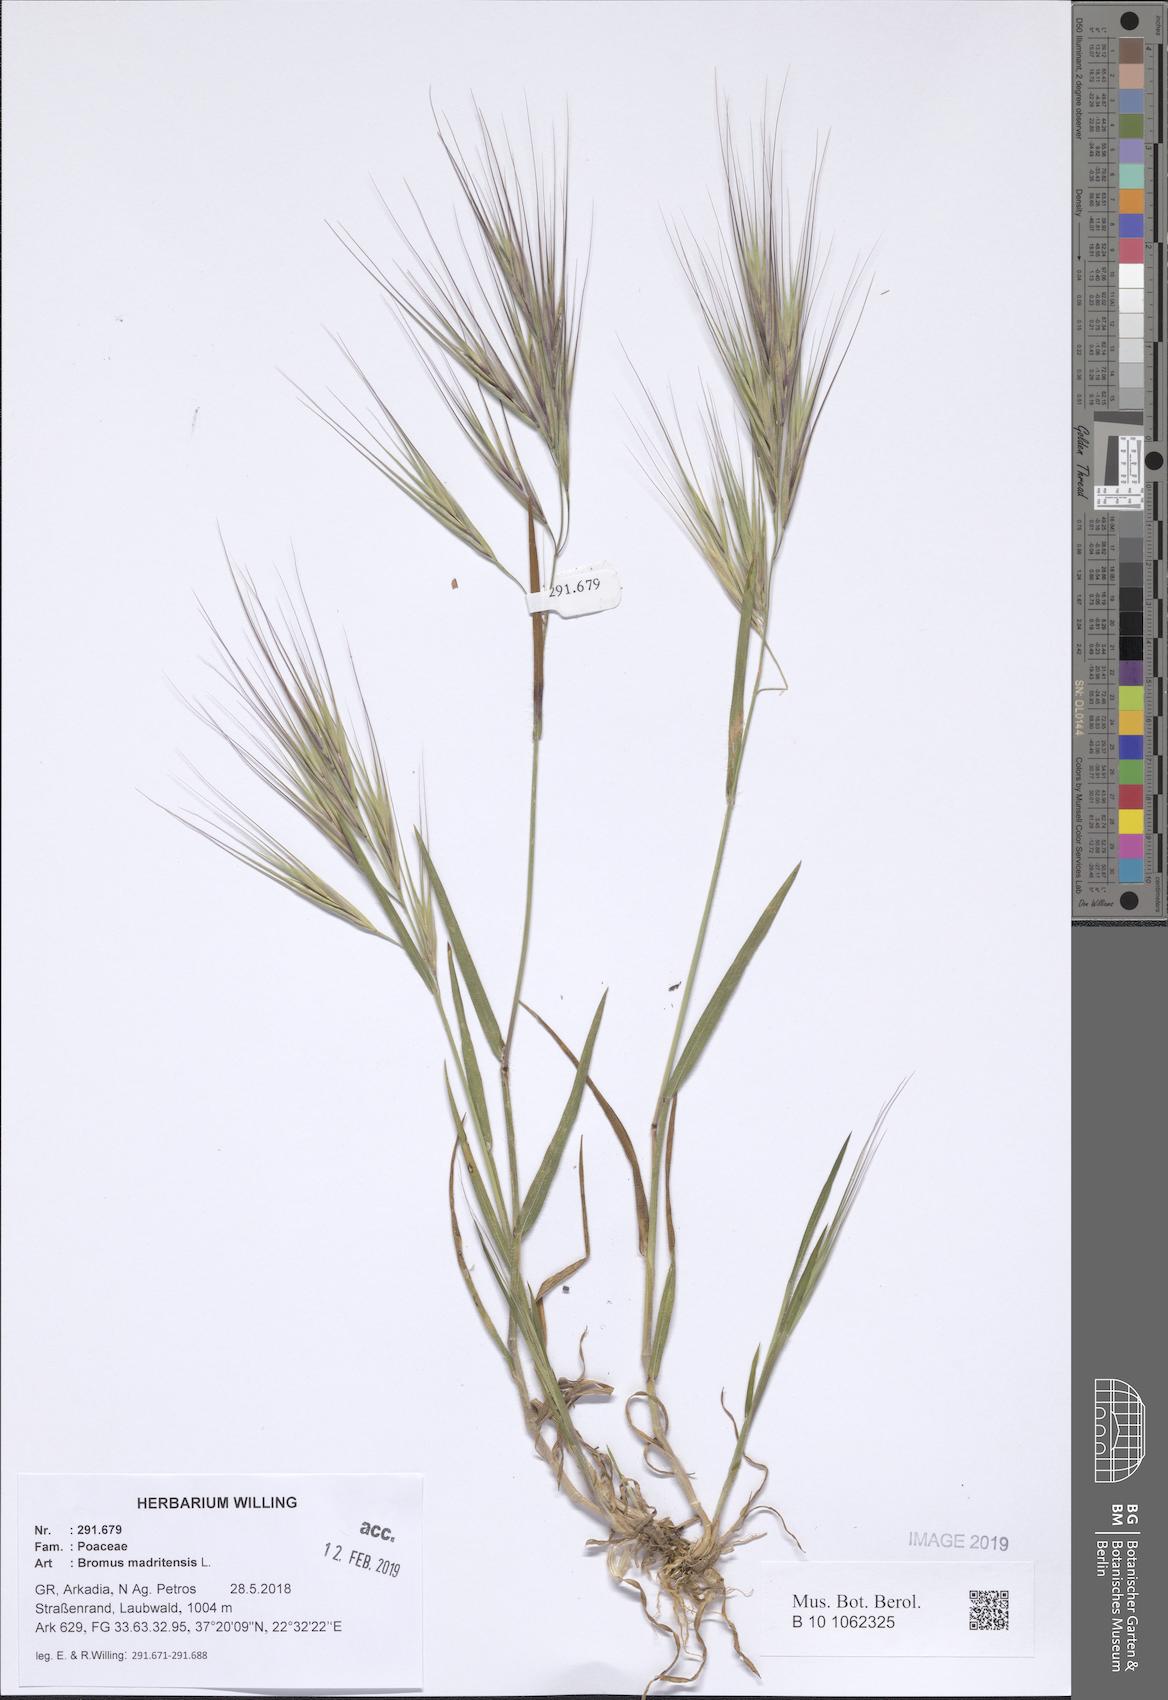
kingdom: Plantae
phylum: Tracheophyta
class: Liliopsida
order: Poales
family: Poaceae
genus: Bromus
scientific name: Bromus madritensis
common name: Compact brome
